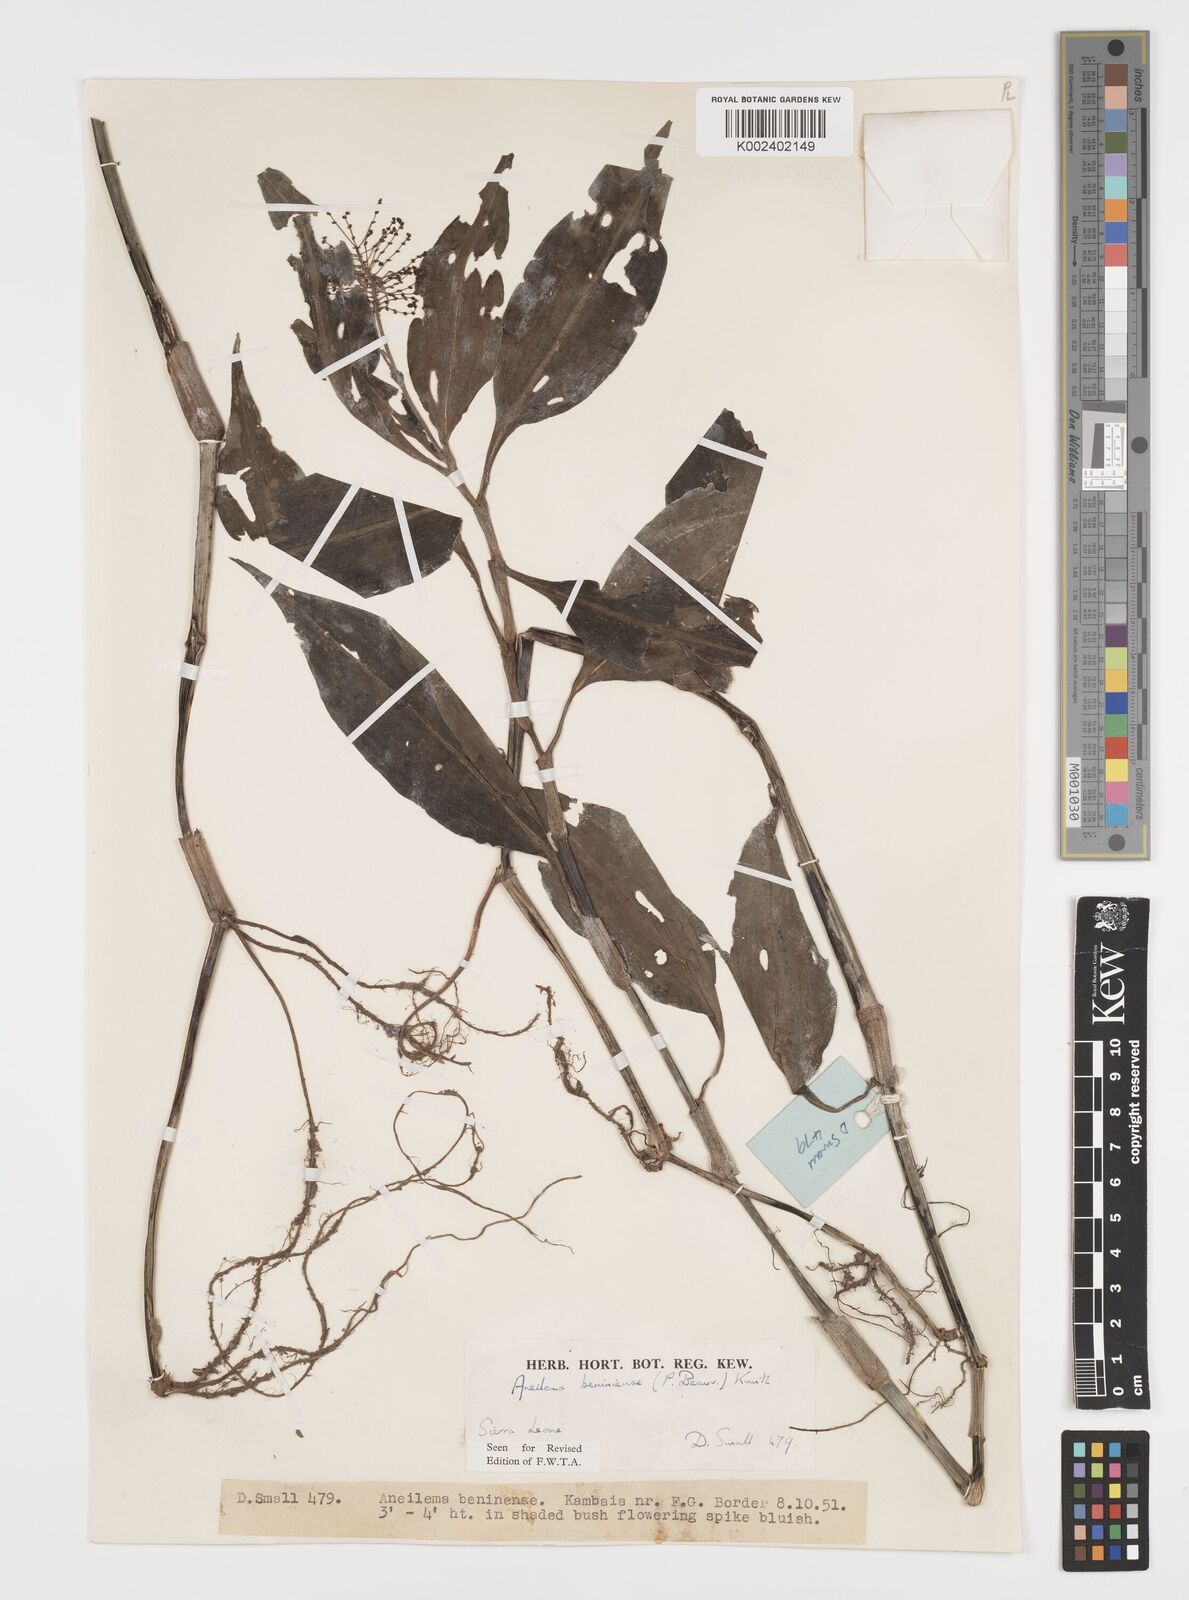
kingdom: Plantae
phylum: Tracheophyta
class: Liliopsida
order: Commelinales
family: Commelinaceae
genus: Aneilema
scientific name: Aneilema beniniense
